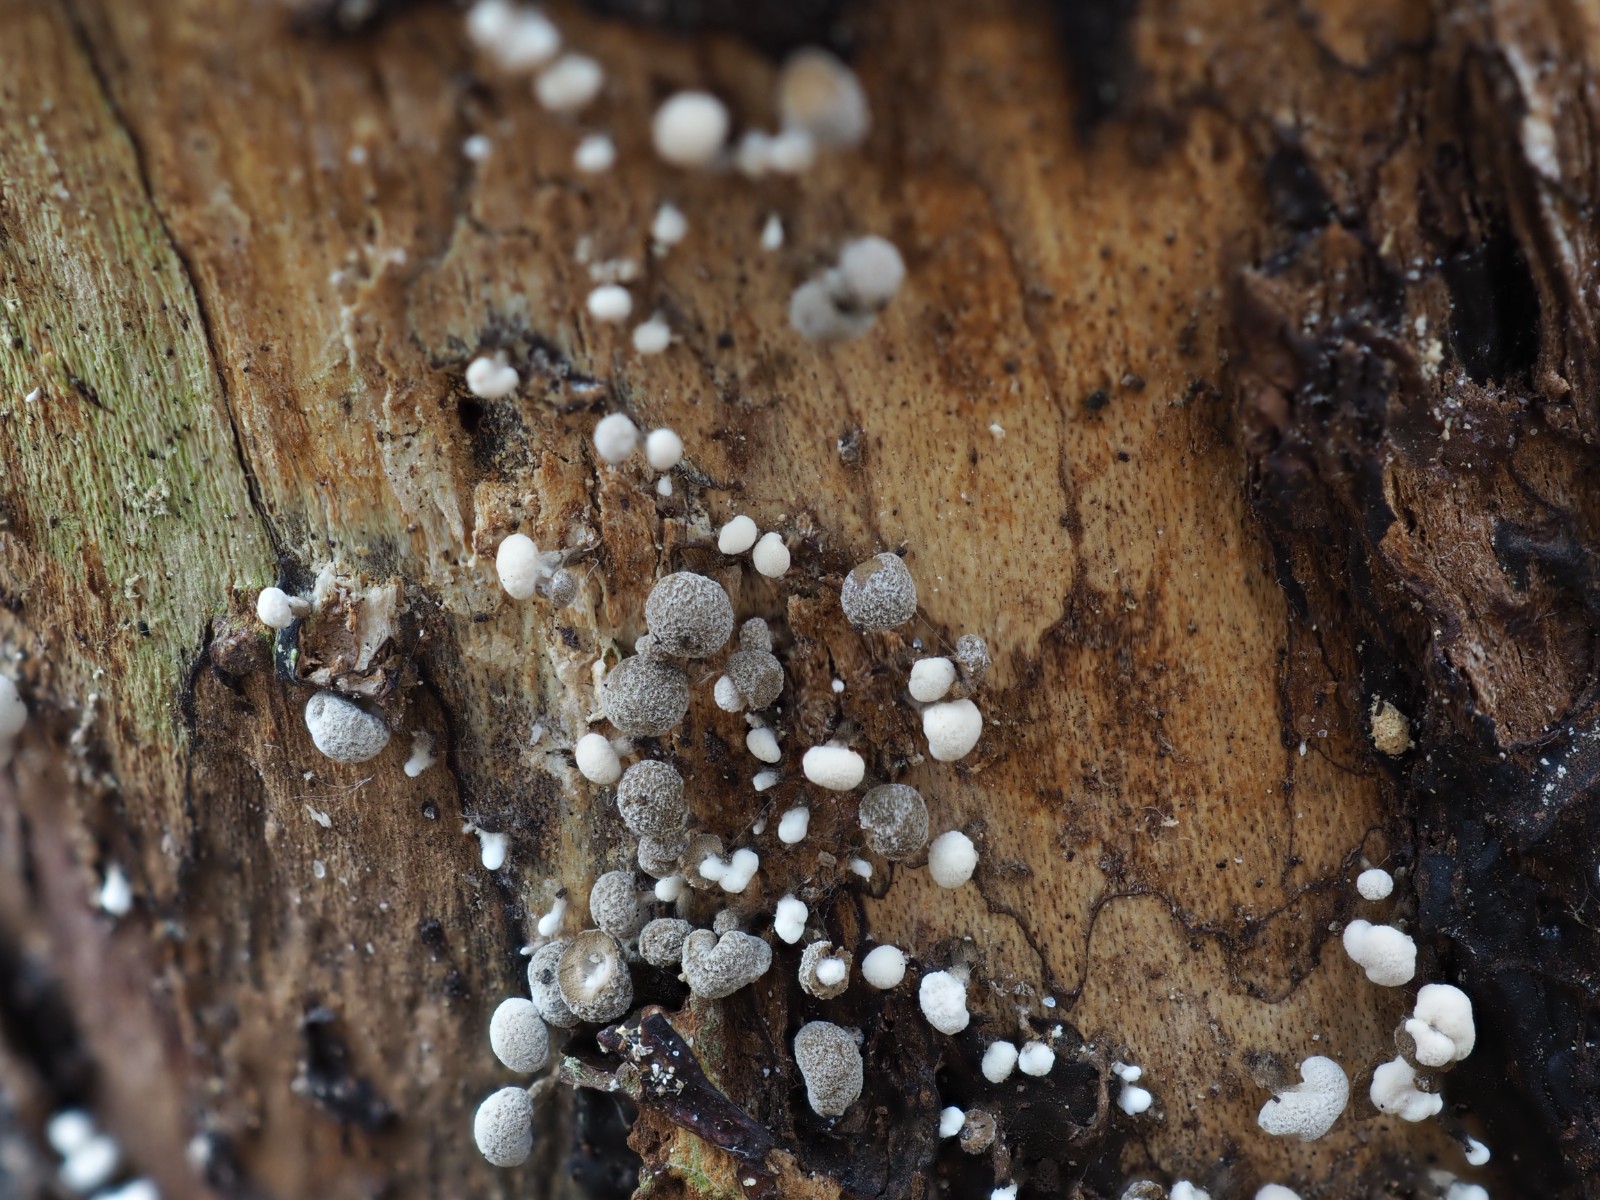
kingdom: Fungi
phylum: Basidiomycota
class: Atractiellomycetes
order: Atractiellales
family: Phleogenaceae
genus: Phleogena
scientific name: Phleogena faginea
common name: pudderkølle
